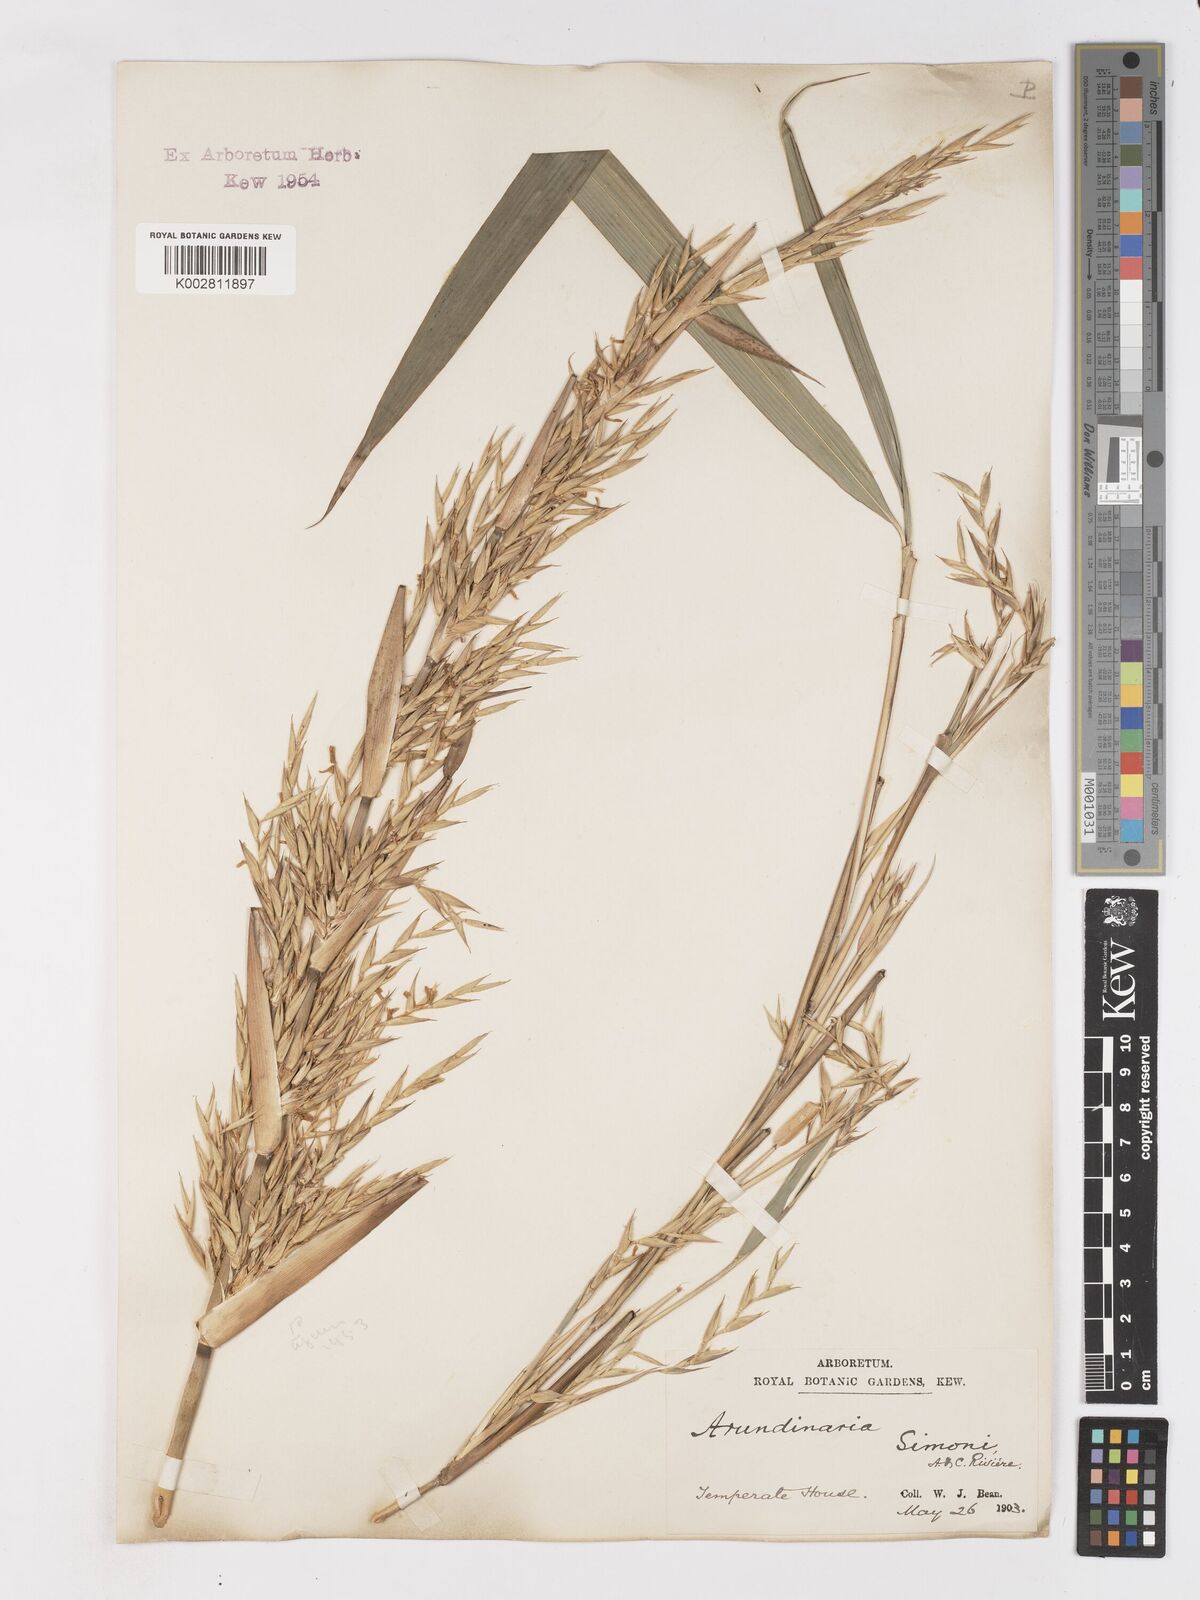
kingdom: Plantae
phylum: Tracheophyta
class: Liliopsida
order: Poales
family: Poaceae
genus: Pleioblastus
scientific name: Pleioblastus simonii
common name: Simon bamboo
